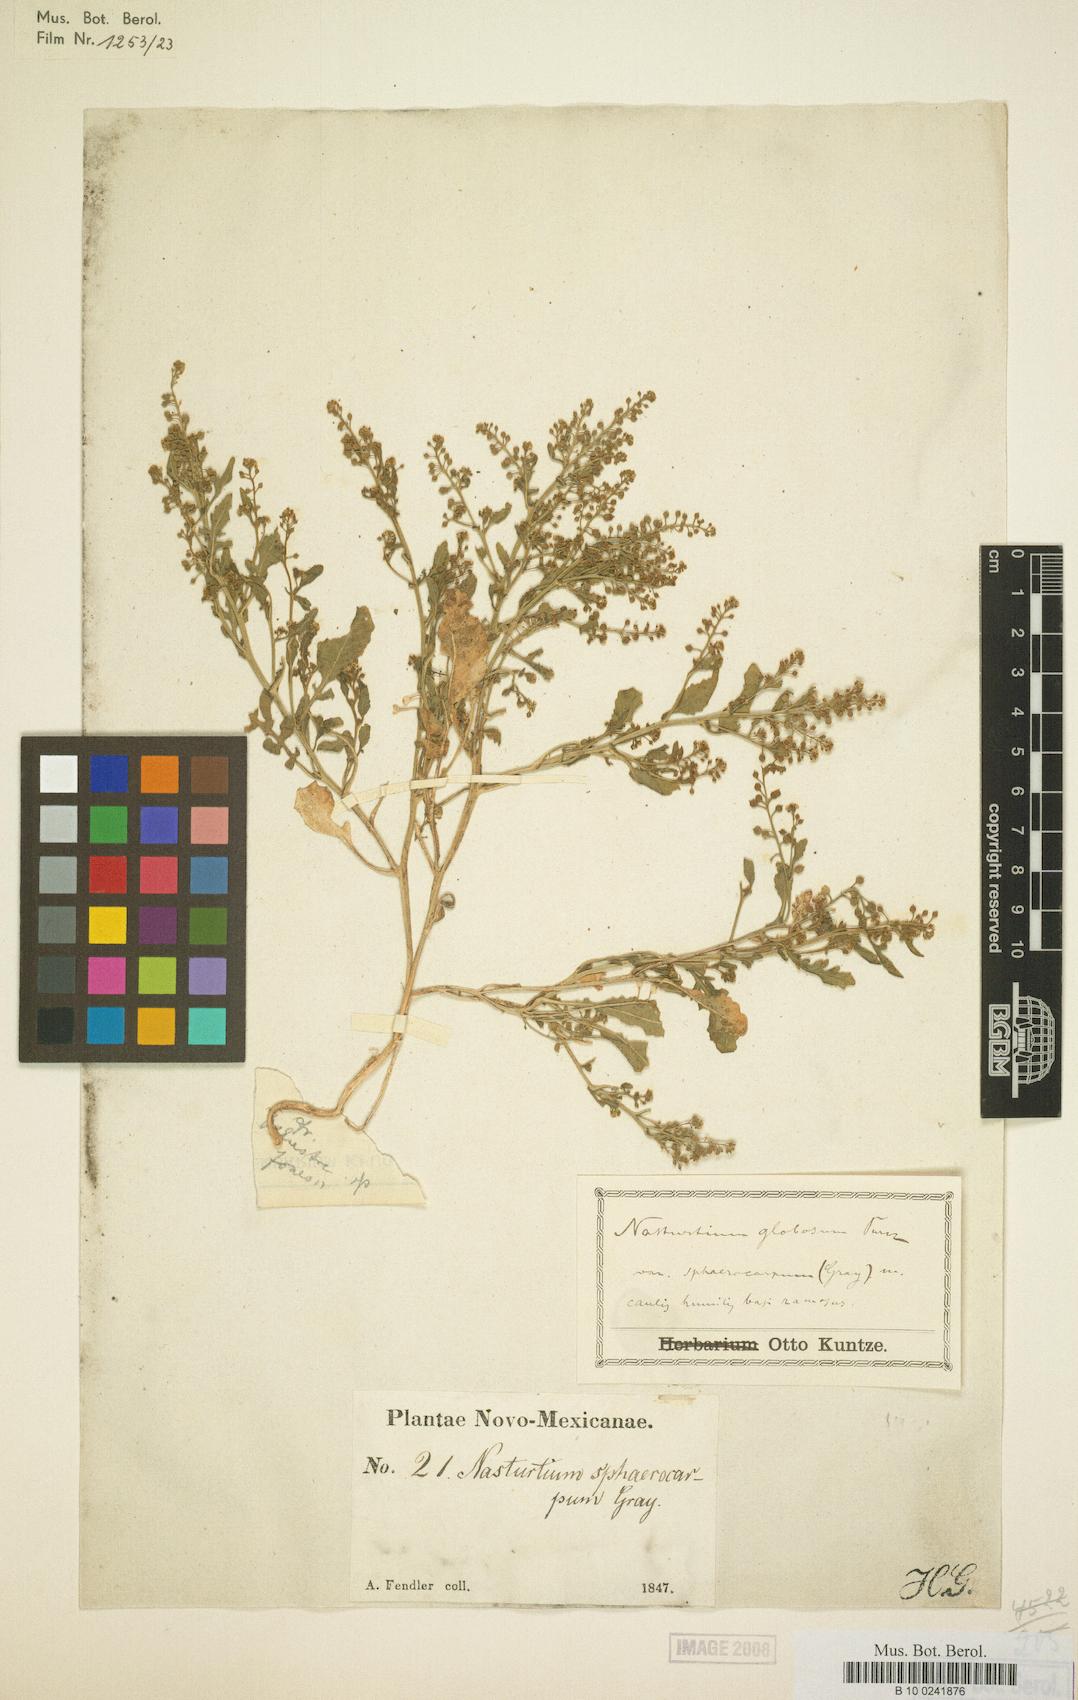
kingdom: Plantae
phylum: Tracheophyta
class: Magnoliopsida
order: Brassicales
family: Brassicaceae
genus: Rorippa
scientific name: Rorippa globosa
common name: Globe yellowcress
